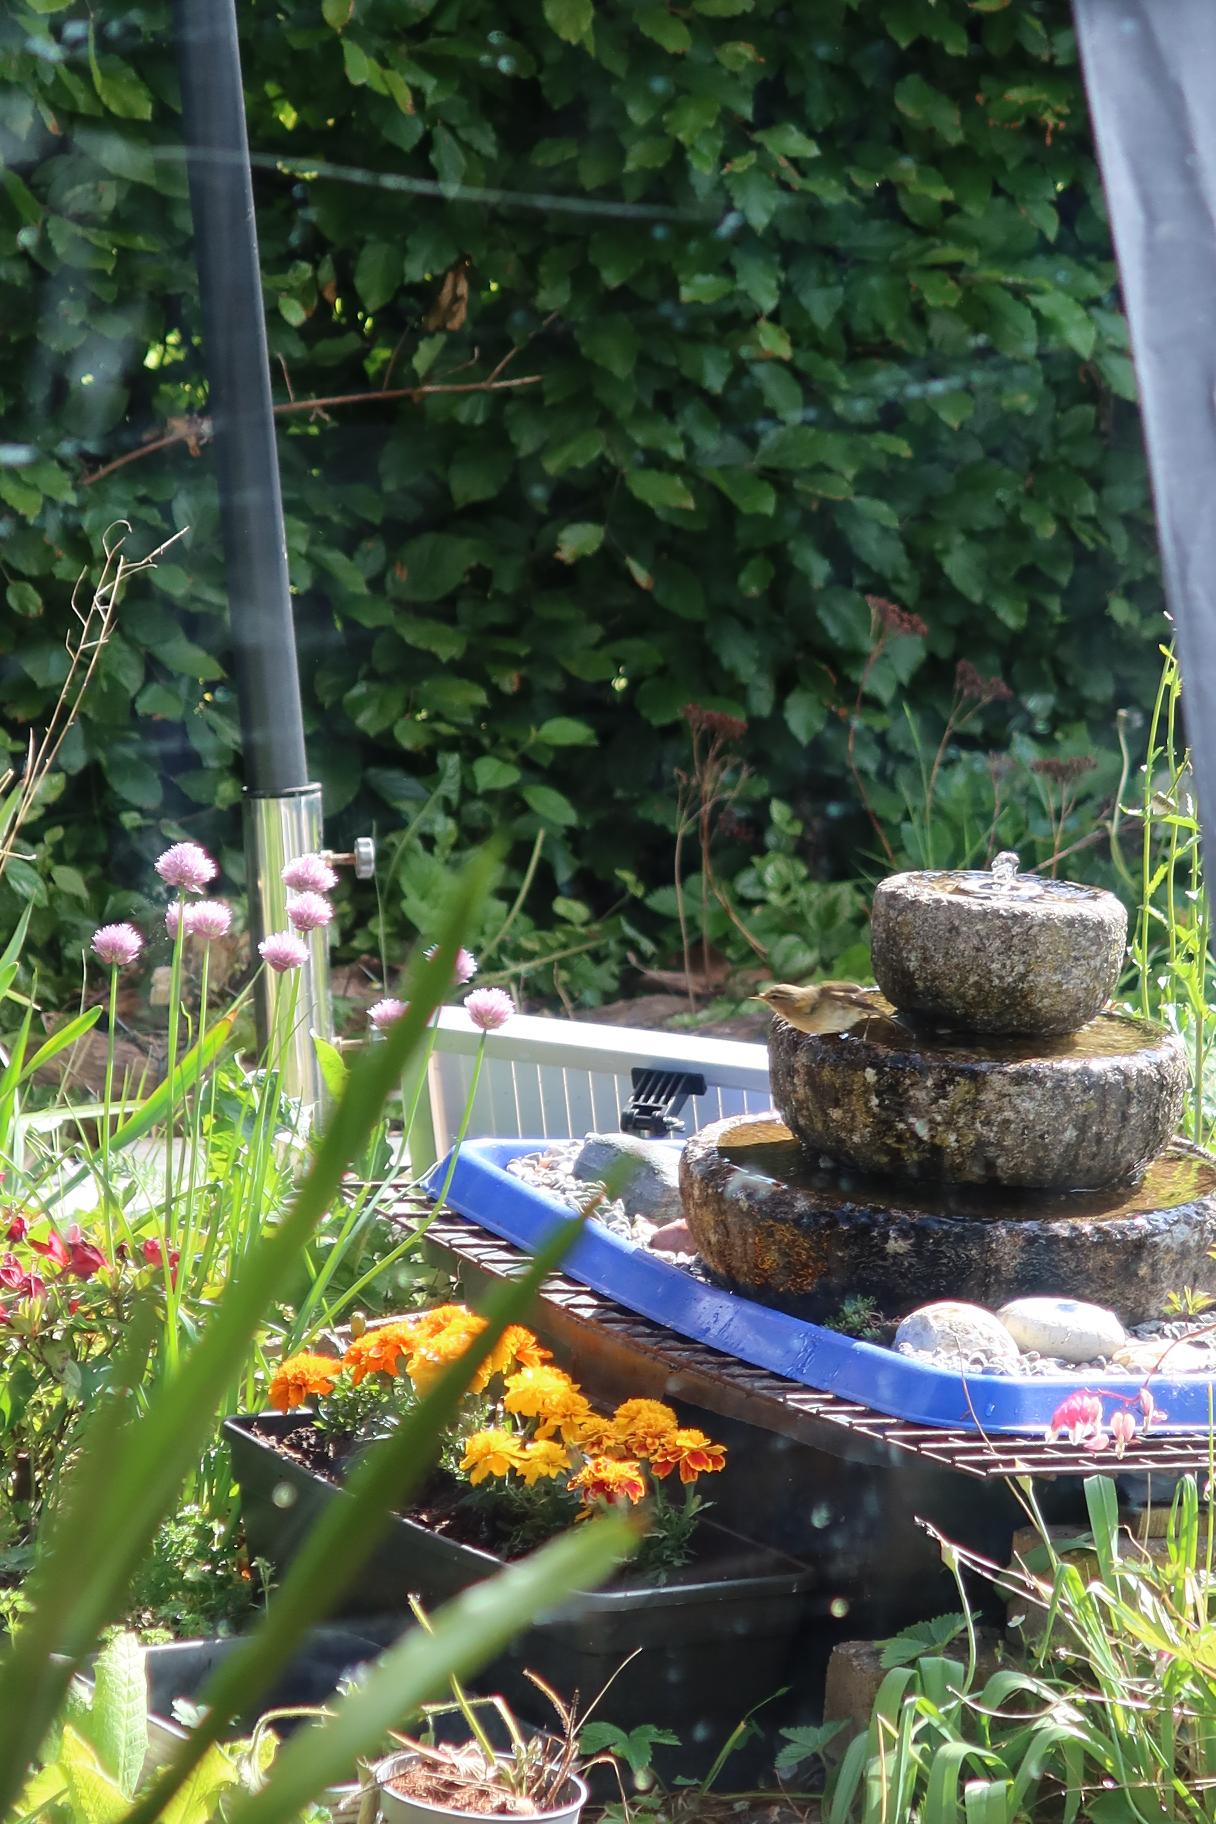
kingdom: Animalia
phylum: Chordata
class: Aves
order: Passeriformes
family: Phylloscopidae
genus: Phylloscopus
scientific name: Phylloscopus collybita
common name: Gransanger
